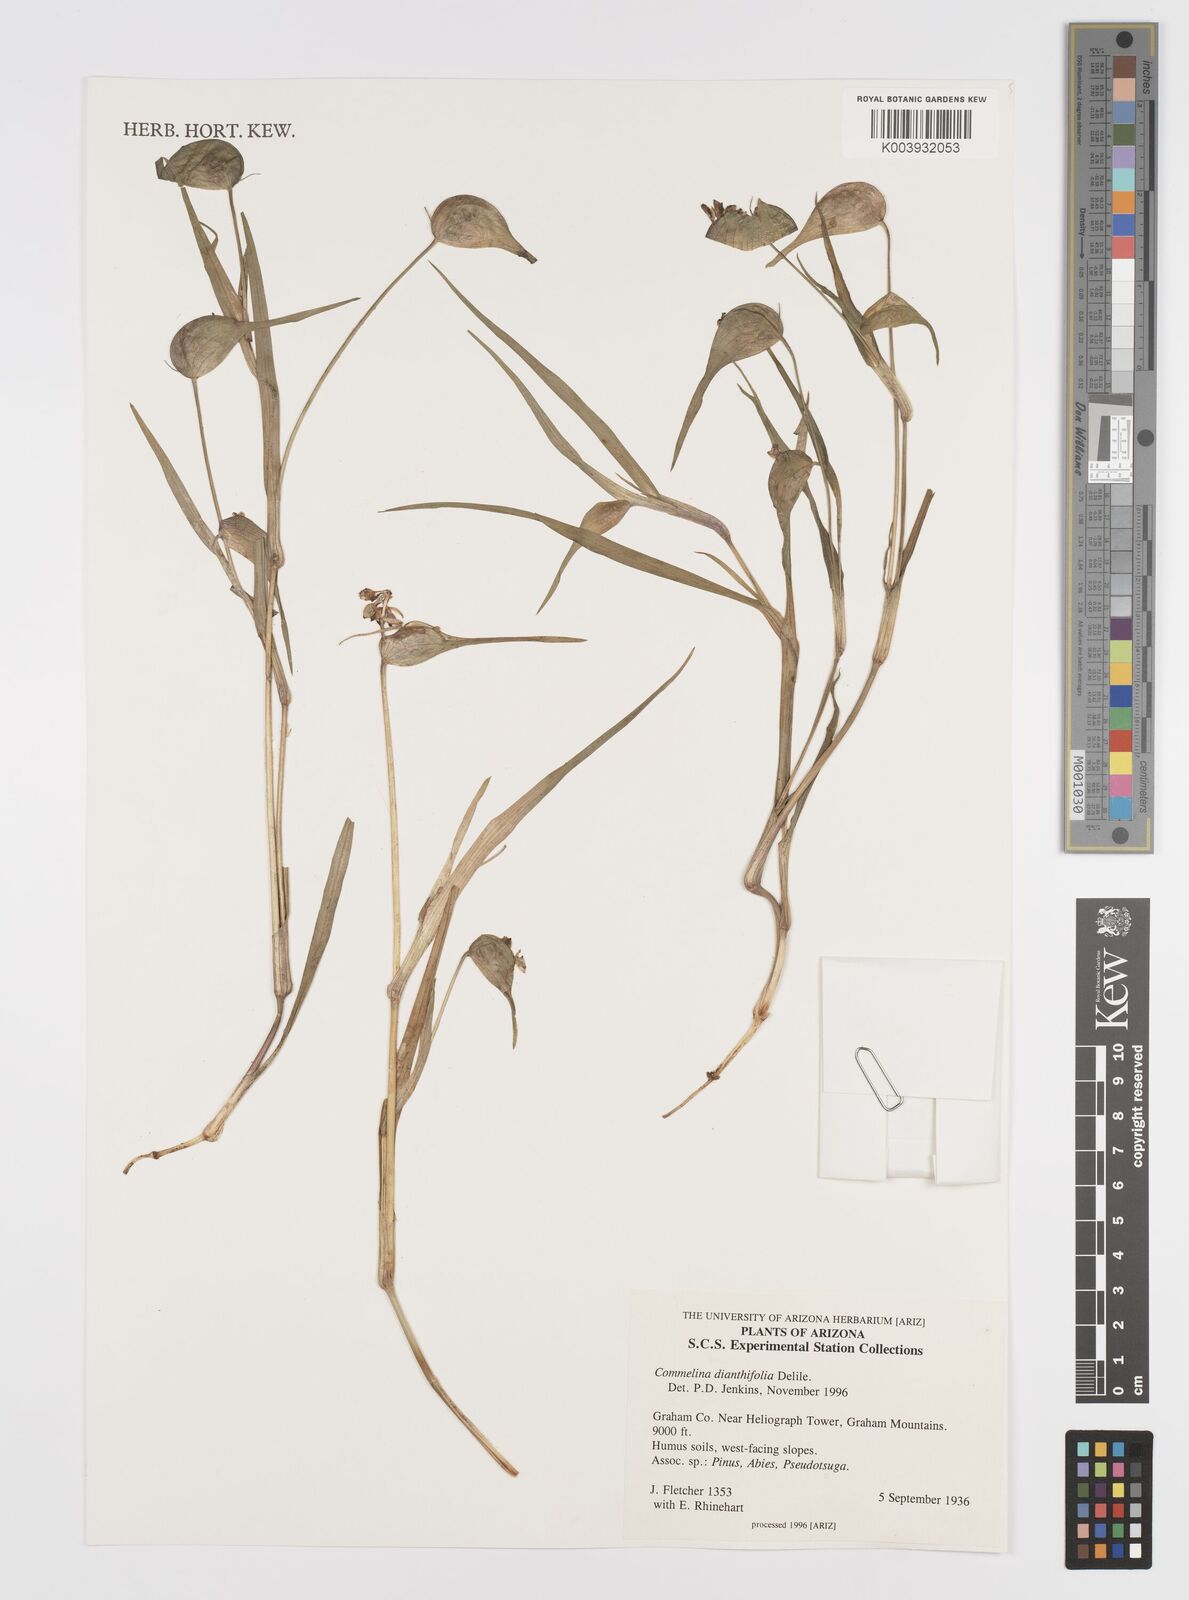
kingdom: Plantae
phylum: Tracheophyta
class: Liliopsida
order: Commelinales
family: Commelinaceae
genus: Commelina
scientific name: Commelina dianthifolia
